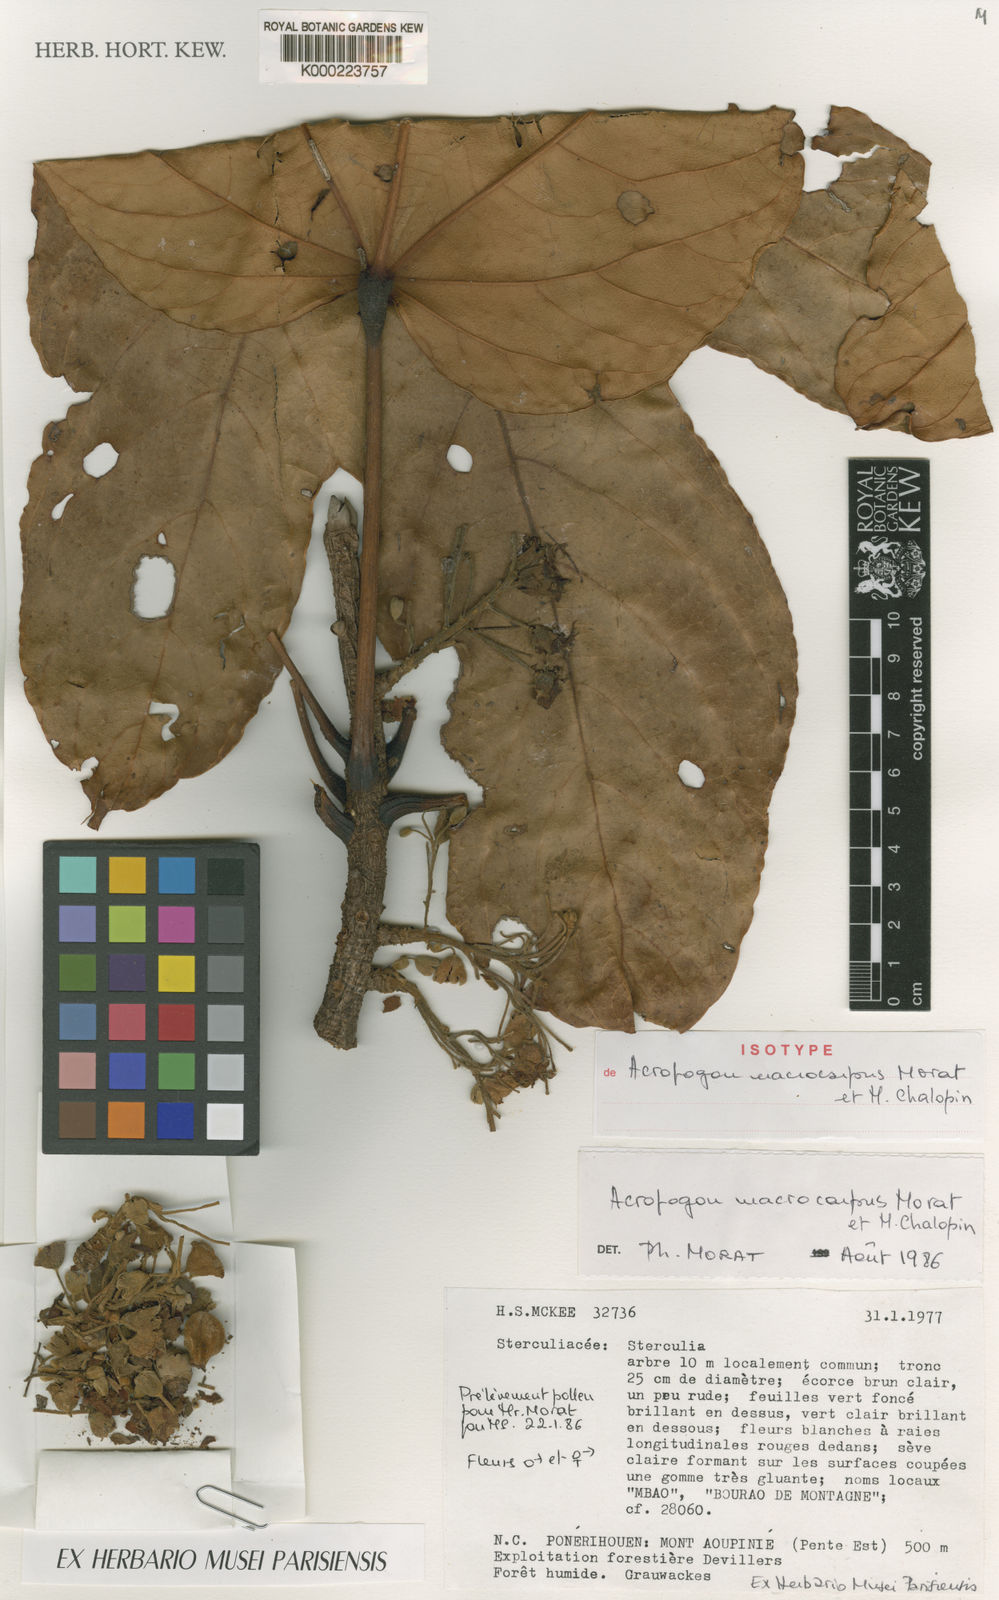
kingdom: Plantae
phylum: Tracheophyta
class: Magnoliopsida
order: Malvales
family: Malvaceae
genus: Acropogon
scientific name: Acropogon macrocarpus
